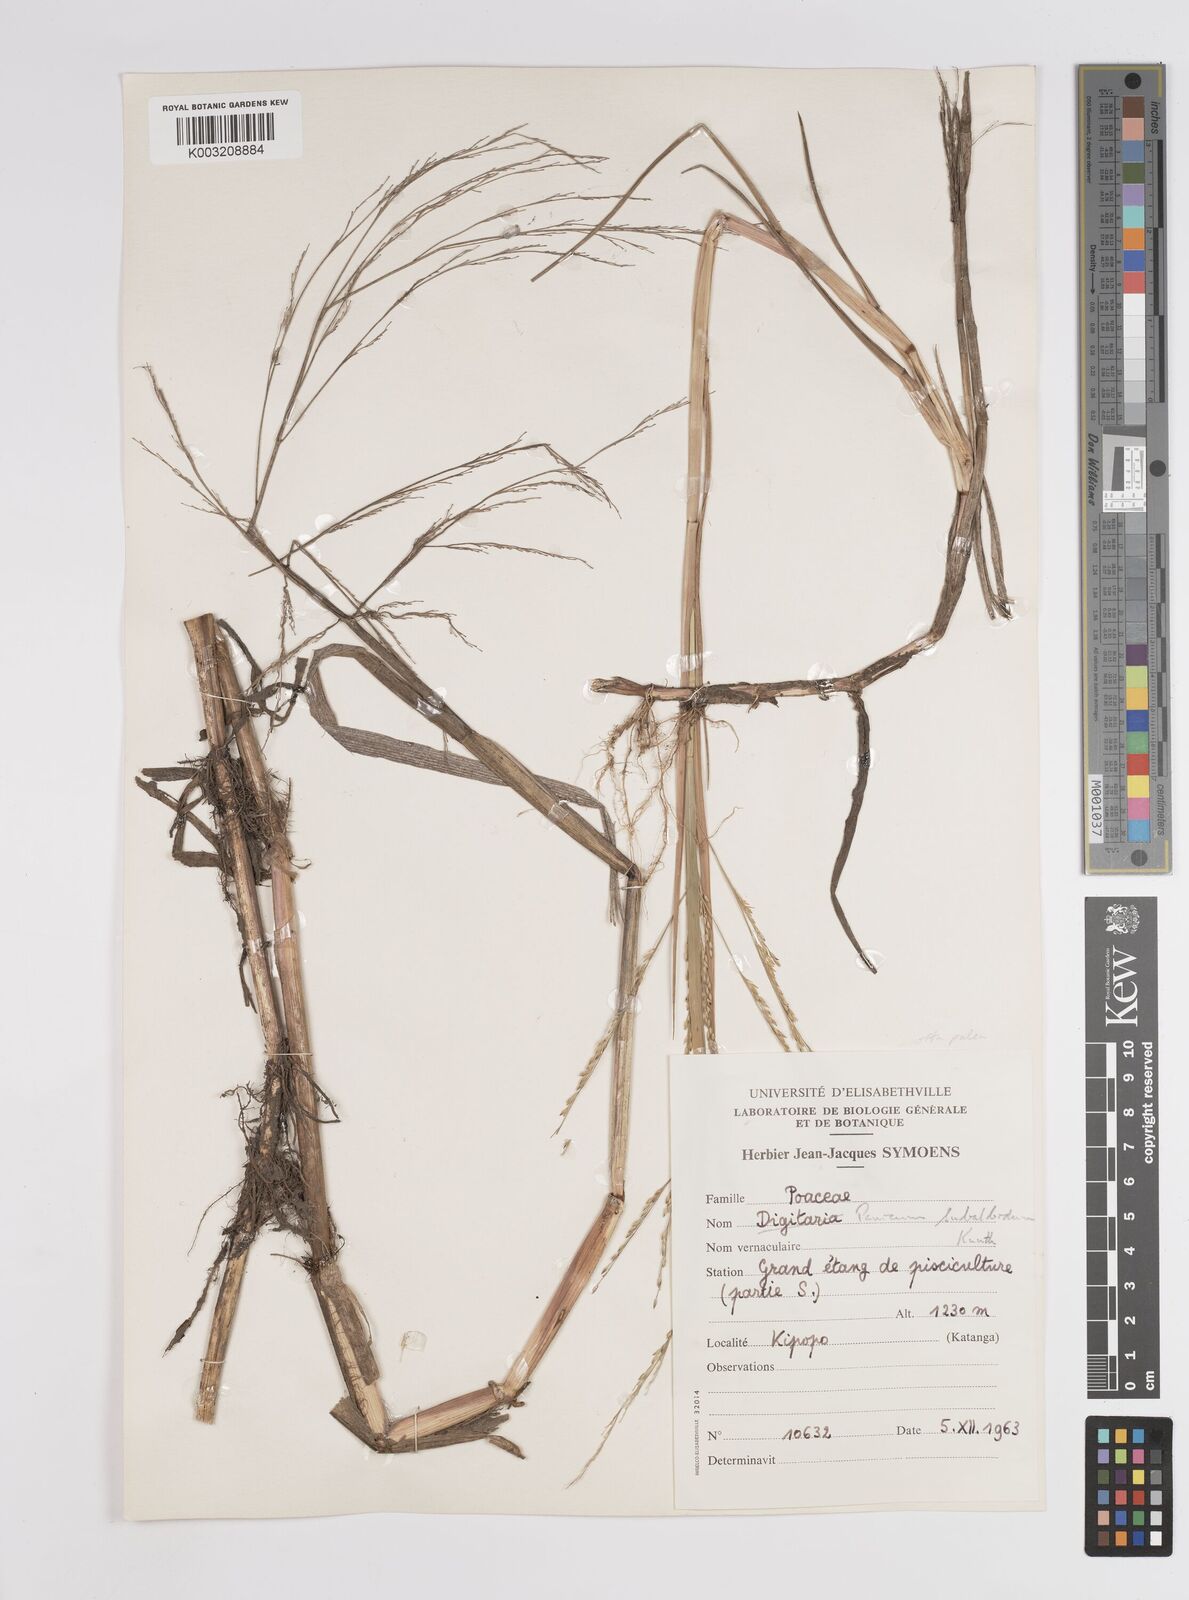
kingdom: Plantae
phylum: Tracheophyta
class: Liliopsida
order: Poales
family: Poaceae
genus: Panicum
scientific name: Panicum subalbidum
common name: Elbow buffalo grass
